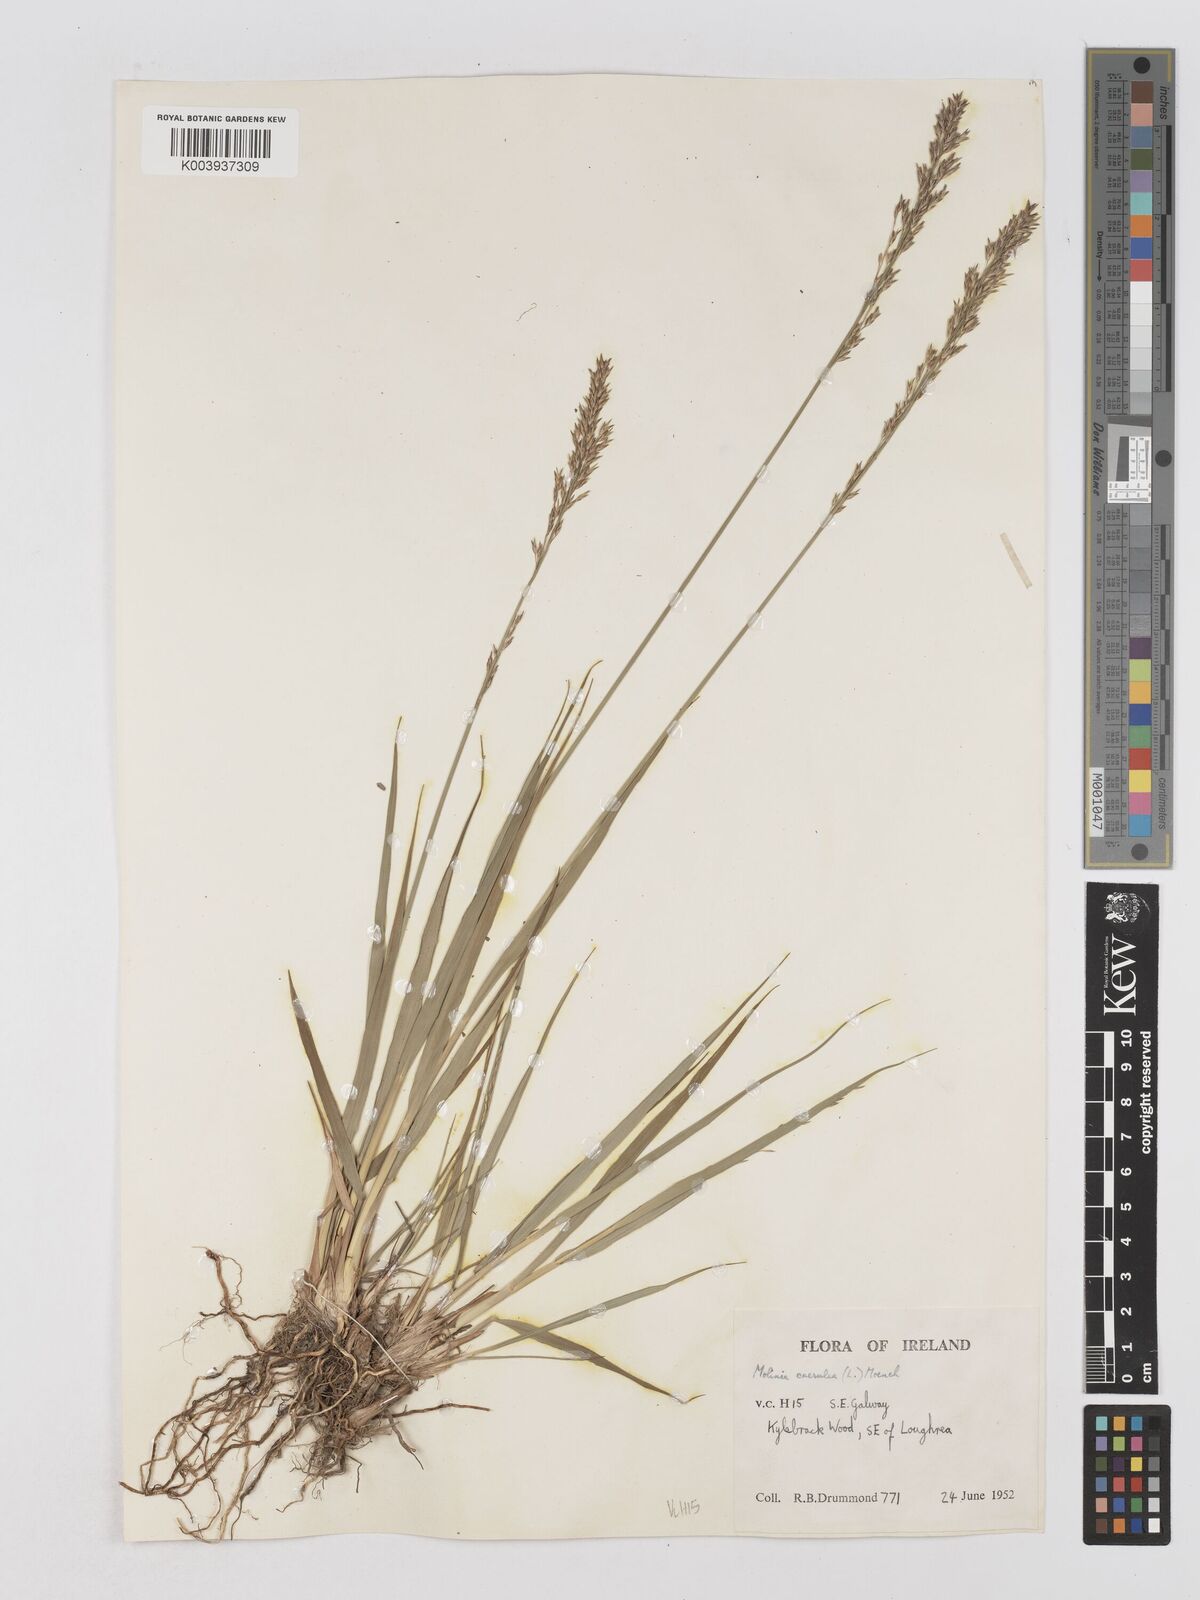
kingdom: Plantae
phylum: Tracheophyta
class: Liliopsida
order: Poales
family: Poaceae
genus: Molinia
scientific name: Molinia caerulea
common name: Purple moor-grass
